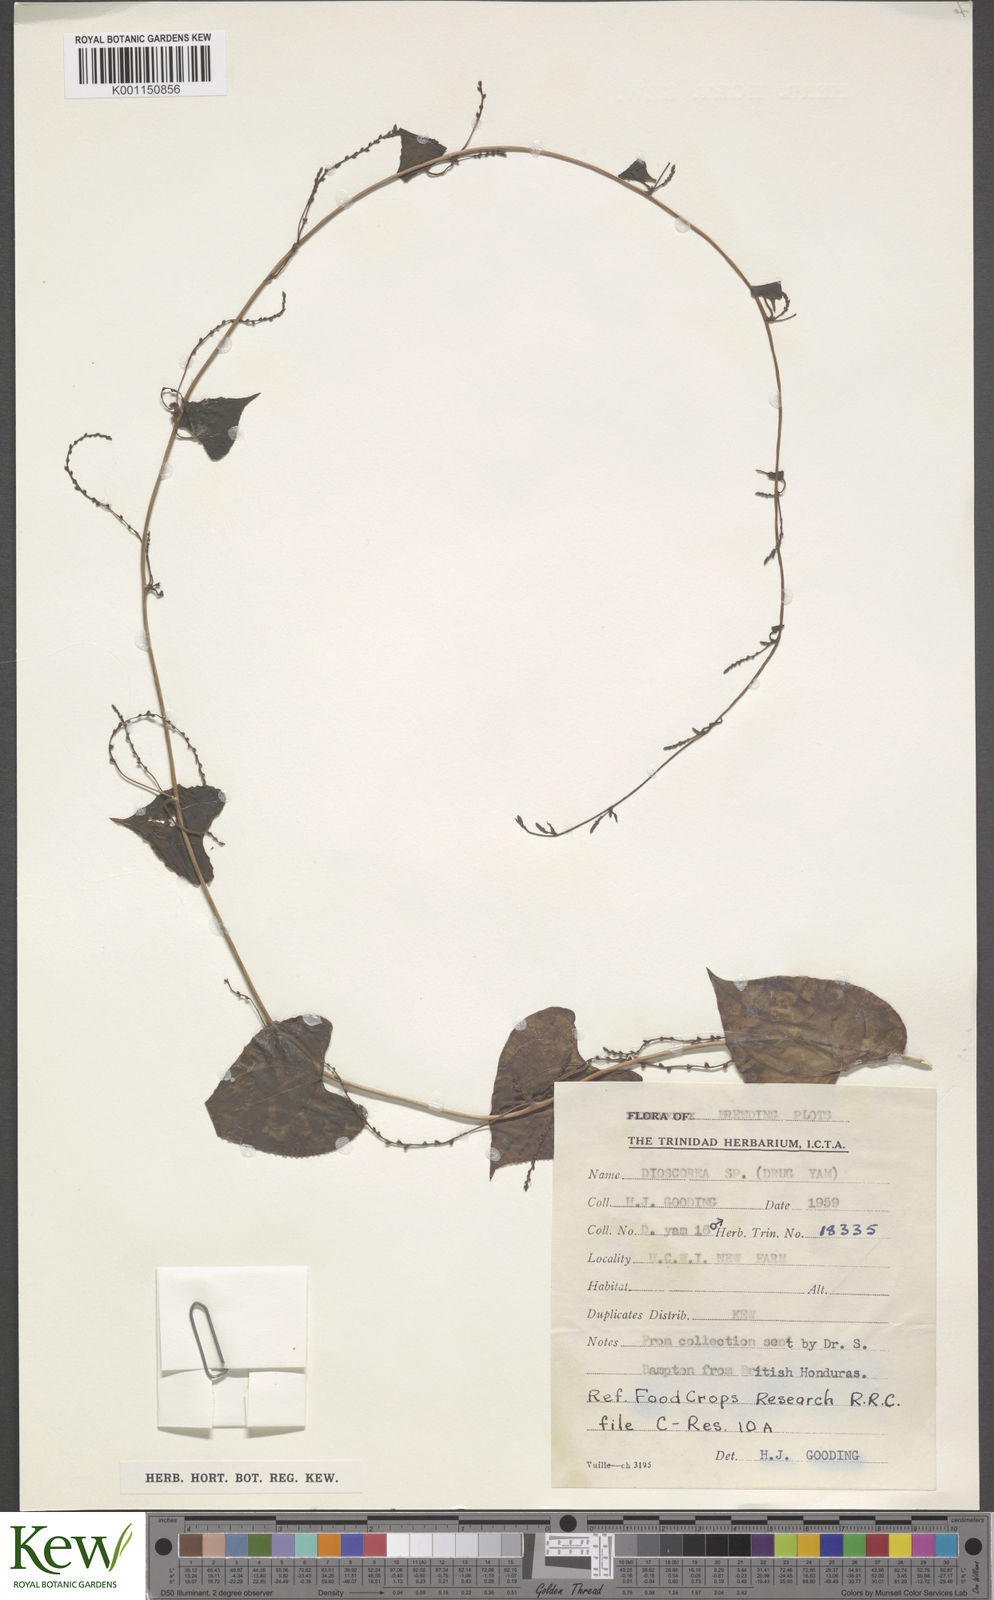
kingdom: Plantae
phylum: Tracheophyta
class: Liliopsida
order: Dioscoreales
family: Dioscoreaceae
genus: Dioscorea
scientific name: Dioscorea
